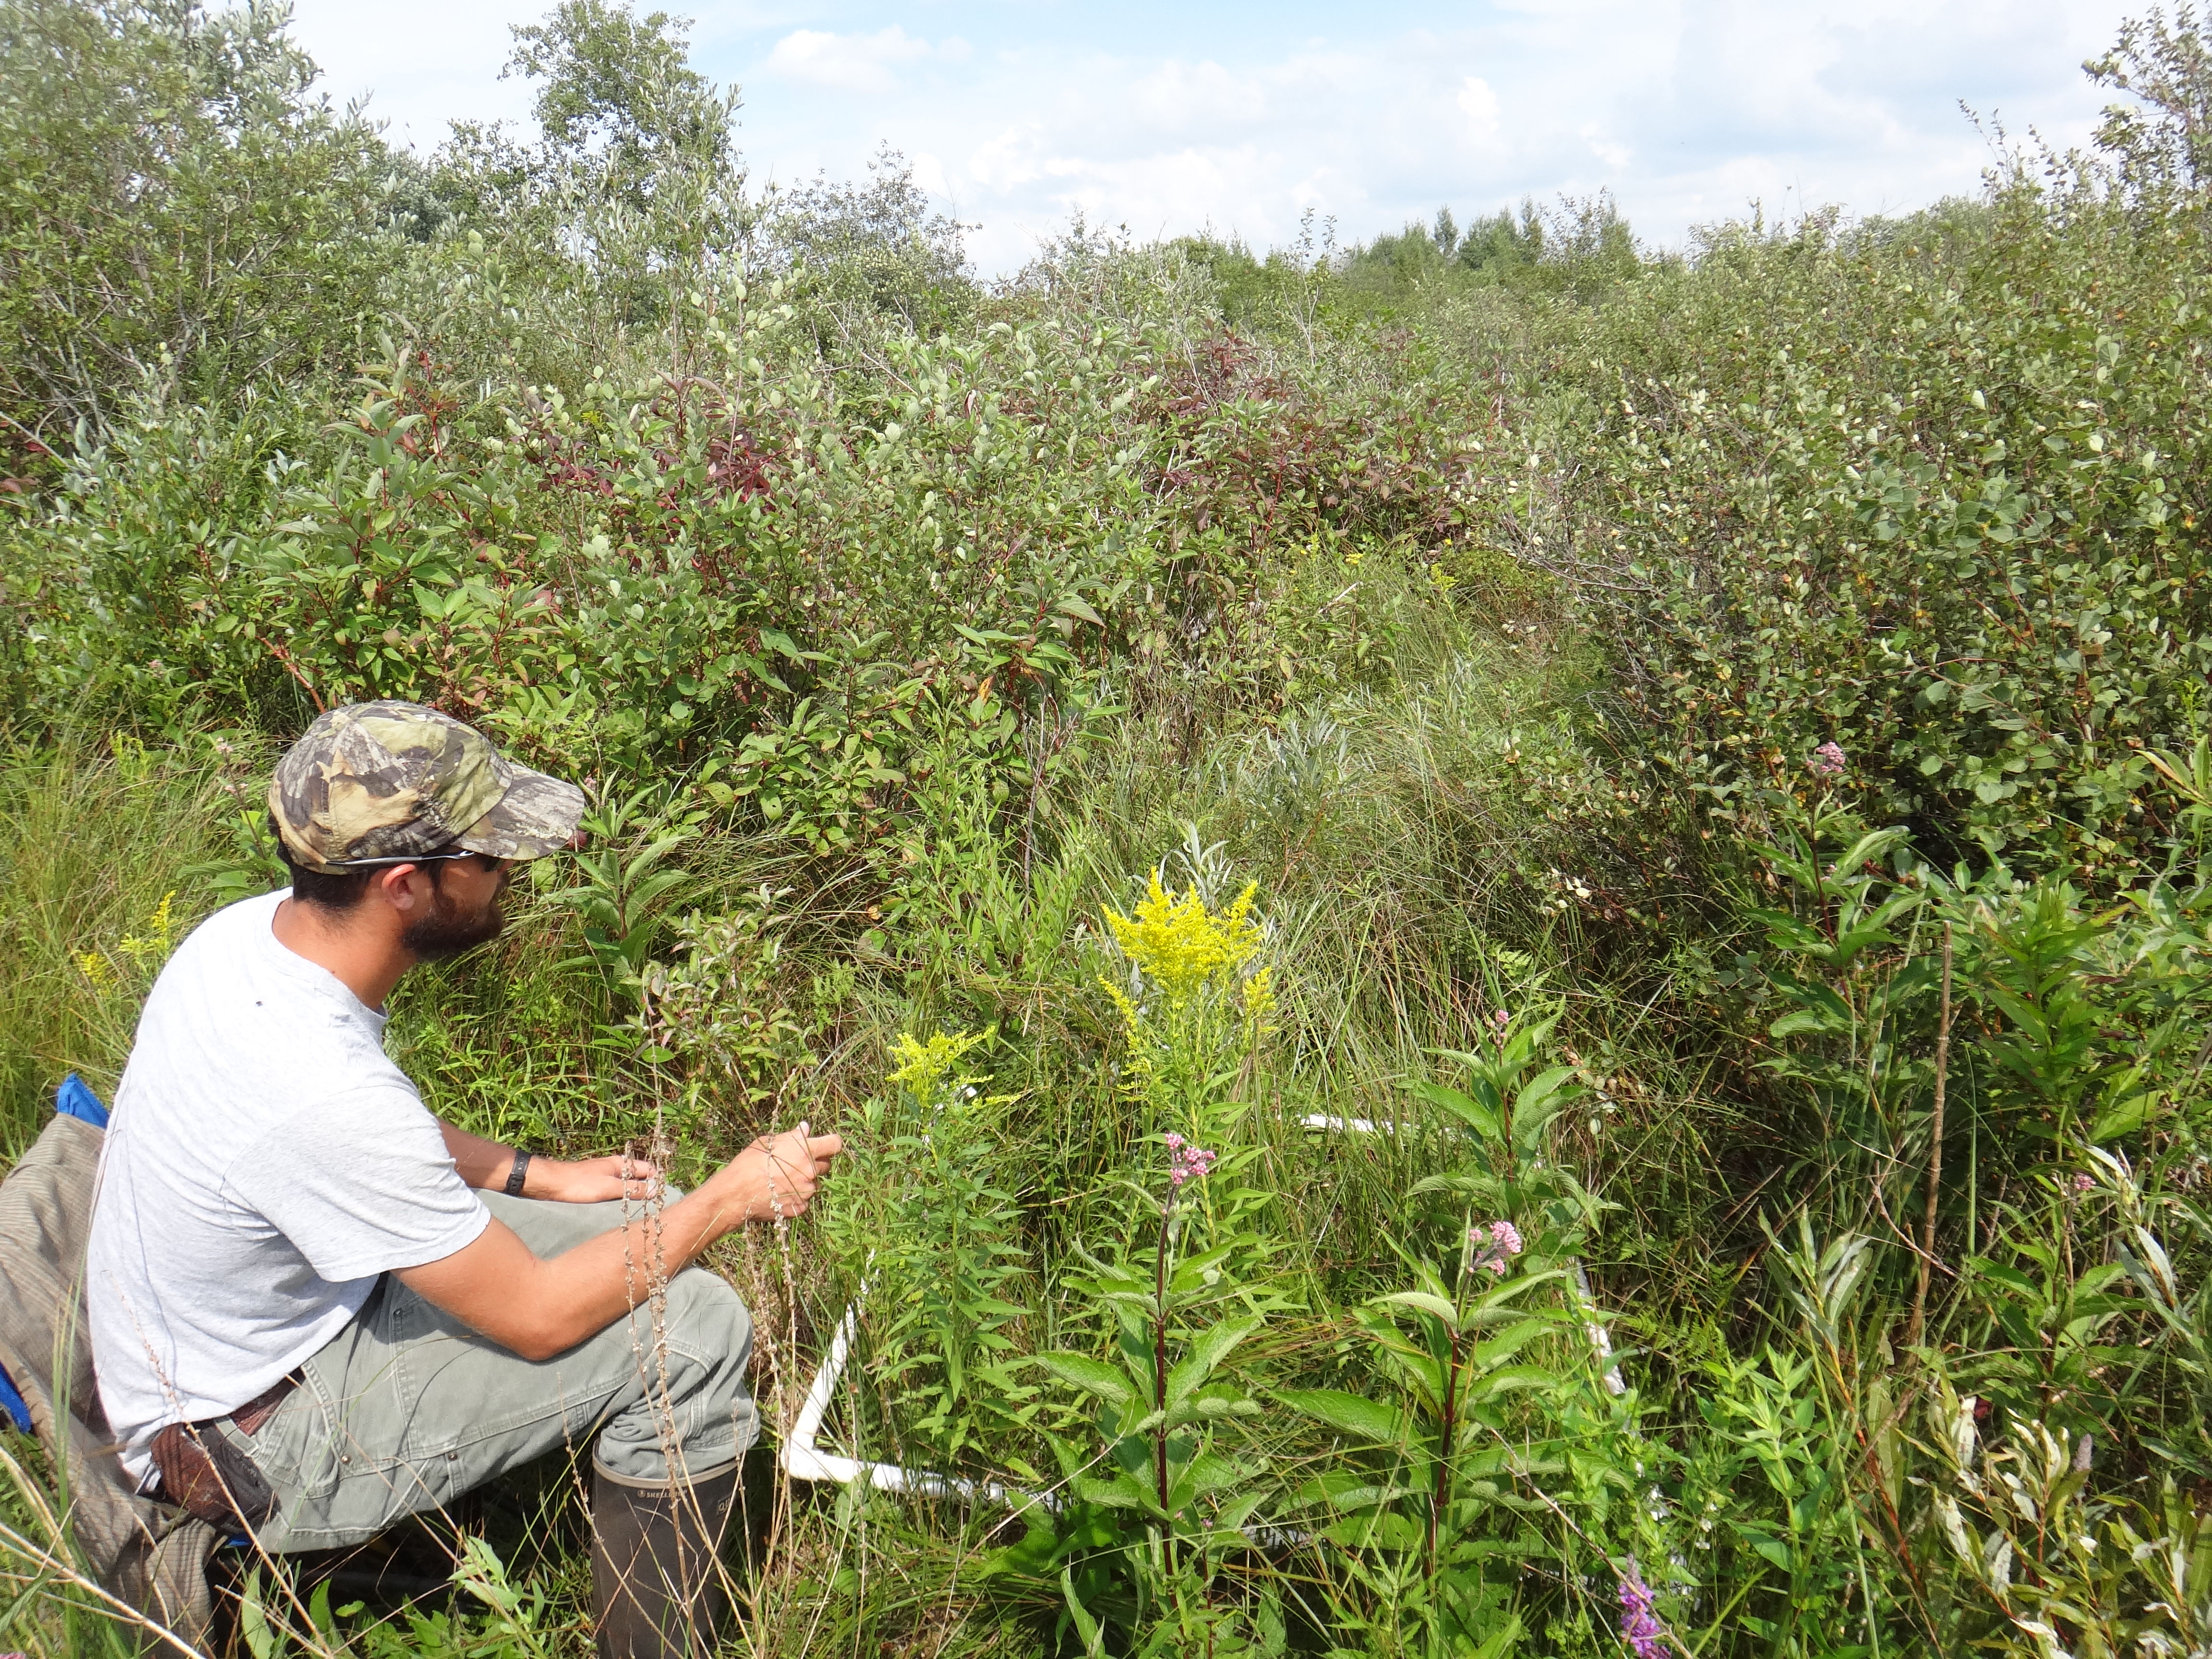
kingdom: Plantae
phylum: Tracheophyta
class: Liliopsida
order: Poales
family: Poaceae
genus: Muhlenbergia
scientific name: Muhlenbergia glomerata
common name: Bog muhly
